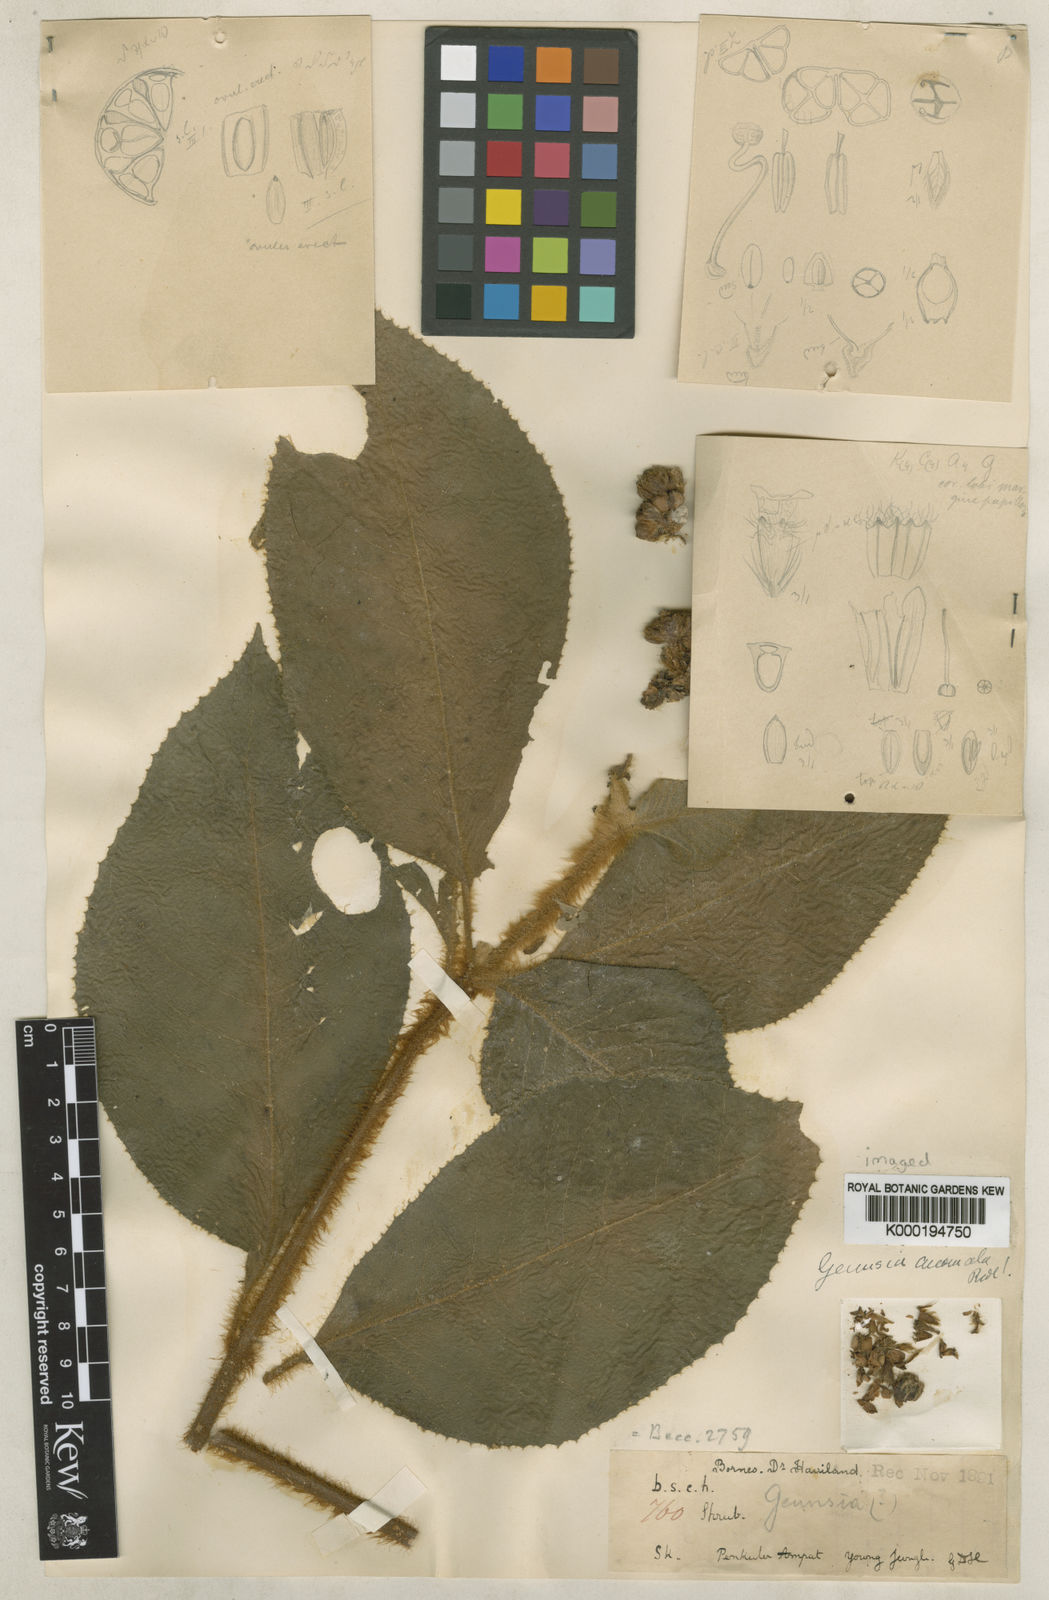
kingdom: Plantae
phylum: Tracheophyta
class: Magnoliopsida
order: Lamiales
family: Lamiaceae
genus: Callicarpa
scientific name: Callicarpa anomala
